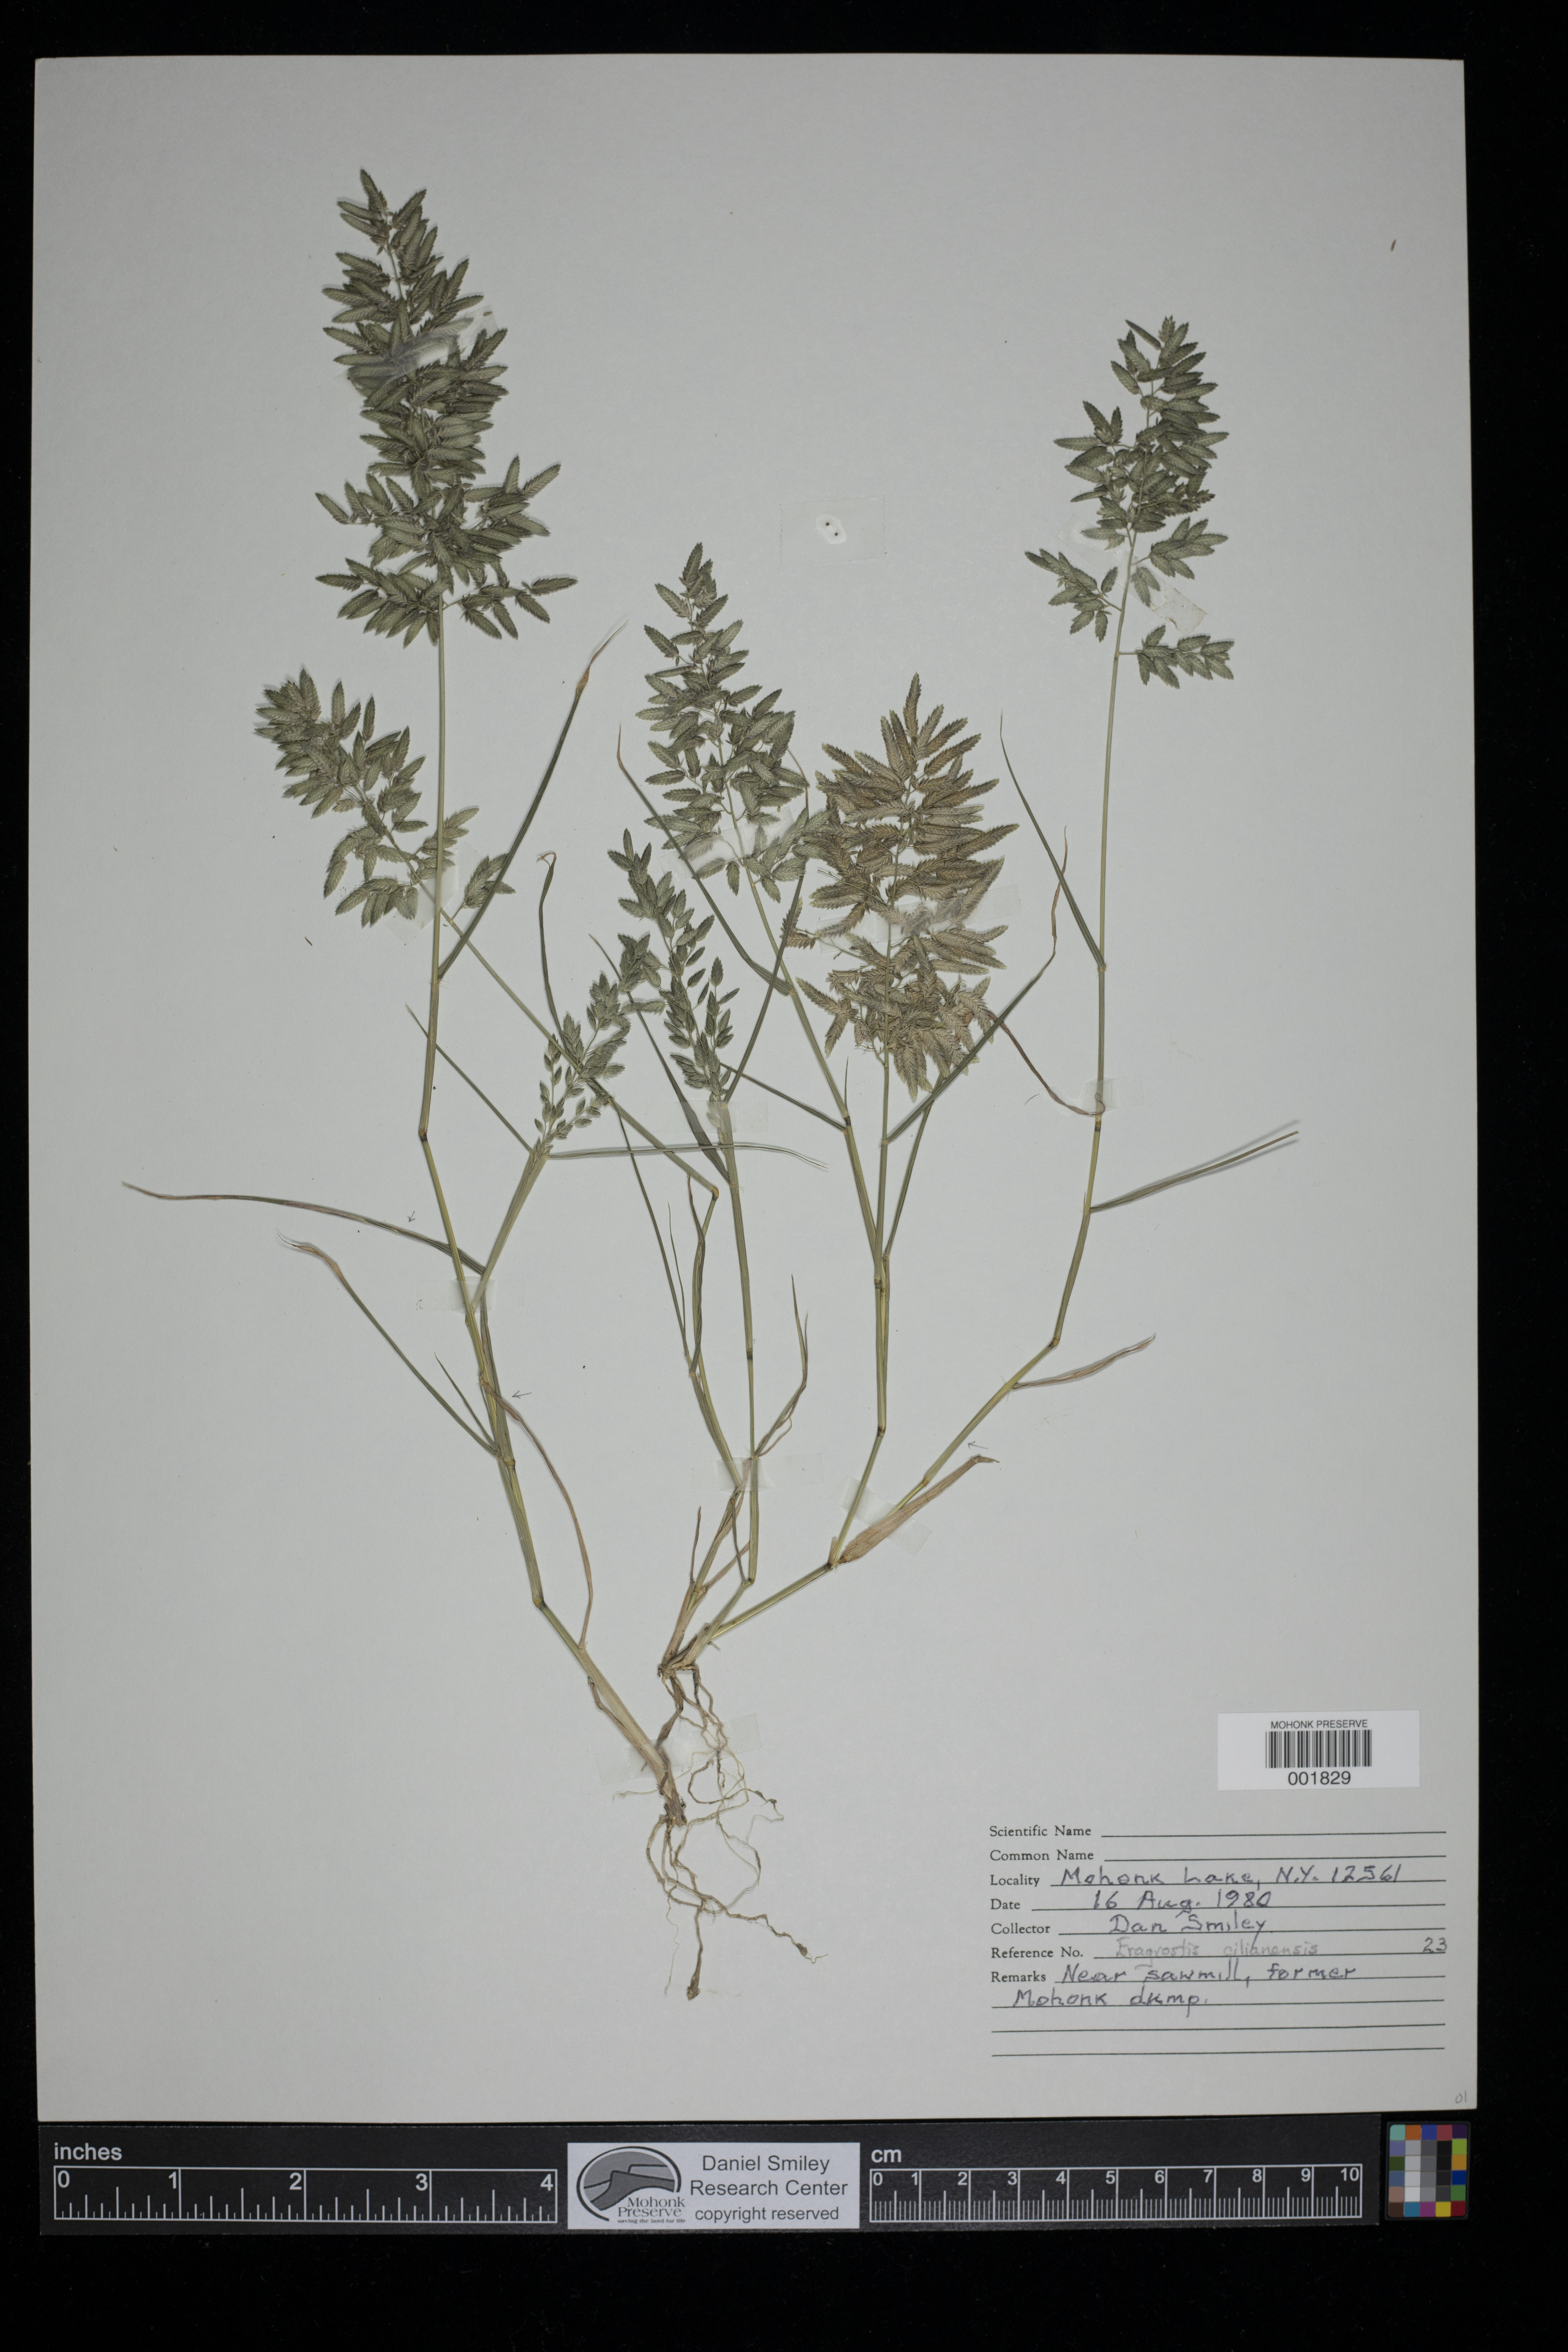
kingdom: Plantae
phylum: Tracheophyta
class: Liliopsida
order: Poales
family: Poaceae
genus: Eragrostis
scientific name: Eragrostis cilianensis
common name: Stinkgrass
